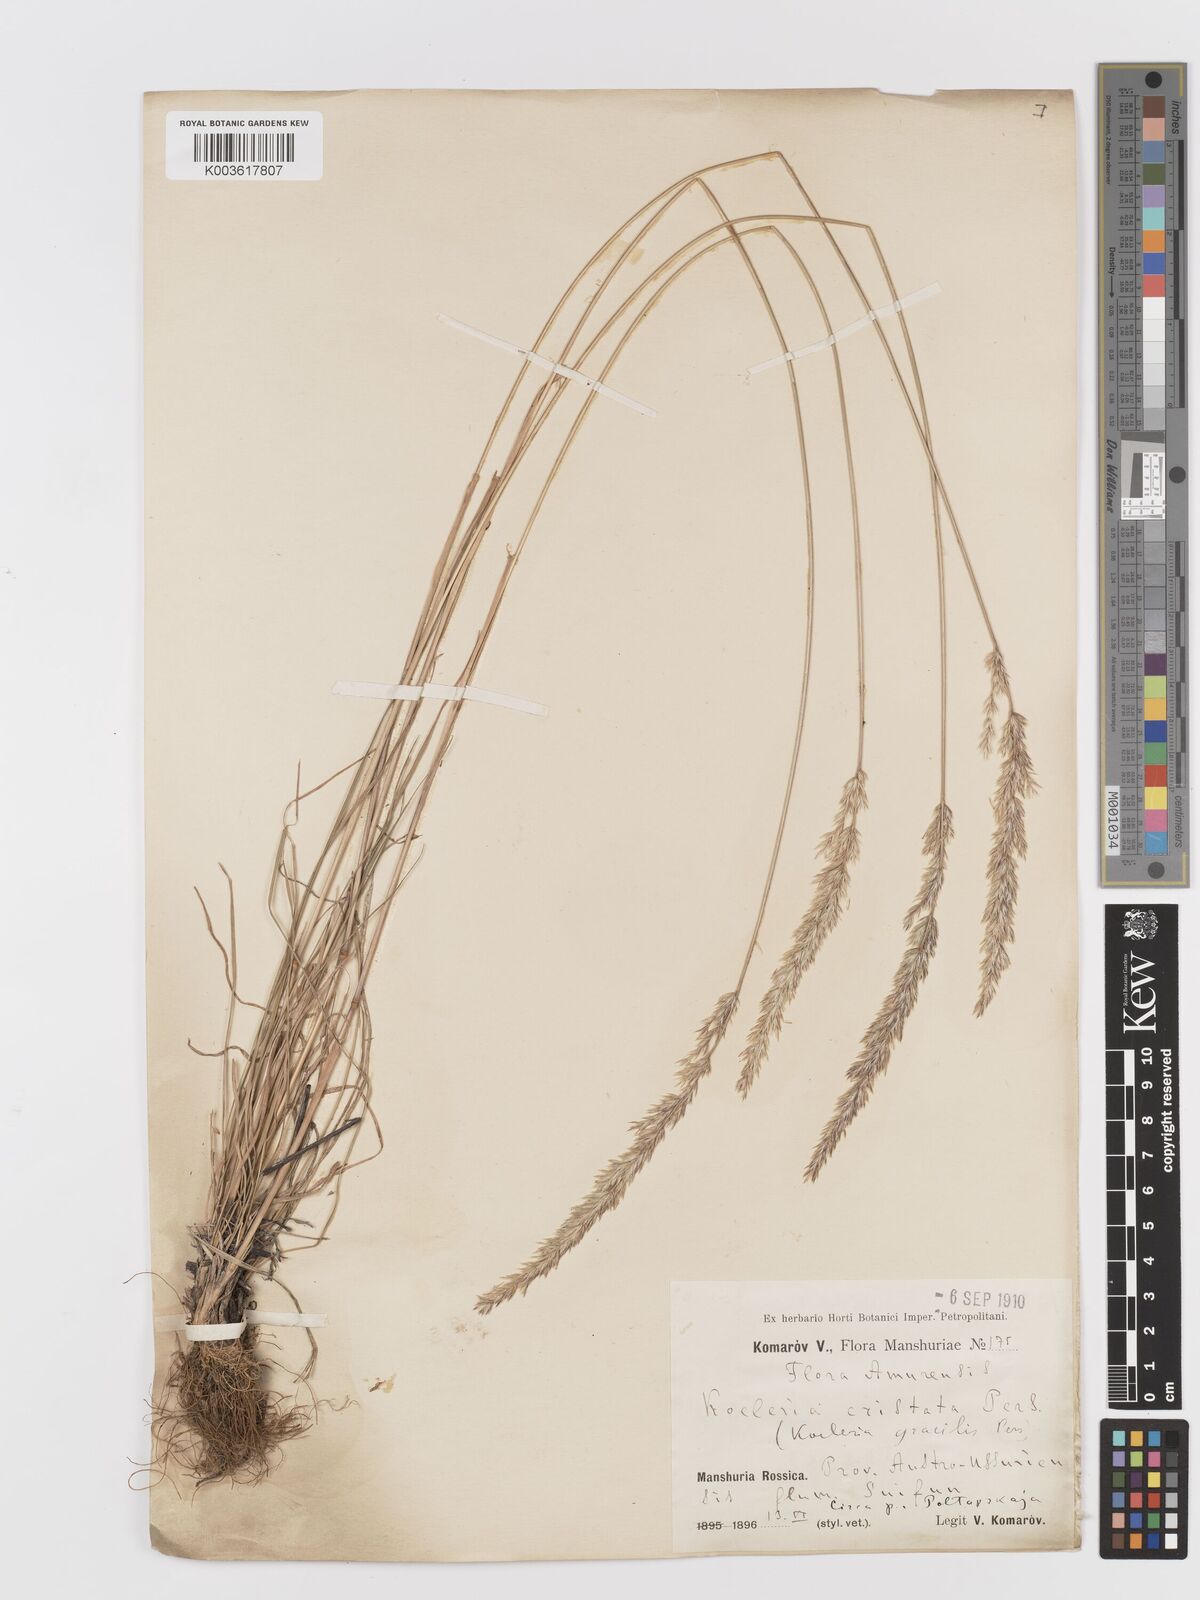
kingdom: Plantae
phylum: Tracheophyta
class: Liliopsida
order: Poales
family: Poaceae
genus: Koeleria
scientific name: Koeleria macrantha
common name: Crested hair-grass
